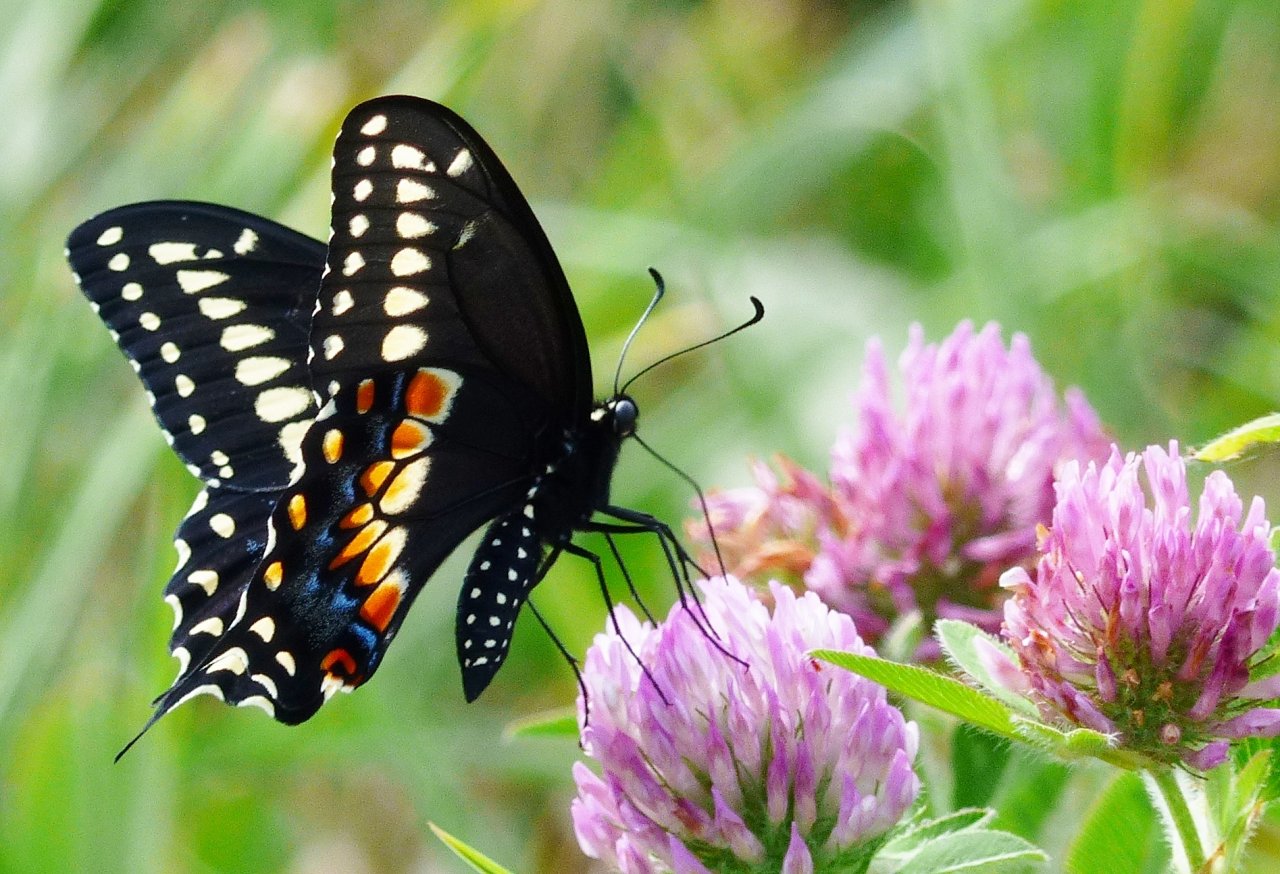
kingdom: Animalia
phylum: Arthropoda
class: Insecta
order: Lepidoptera
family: Papilionidae
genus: Papilio
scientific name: Papilio polyxenes
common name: Black Swallowtail
